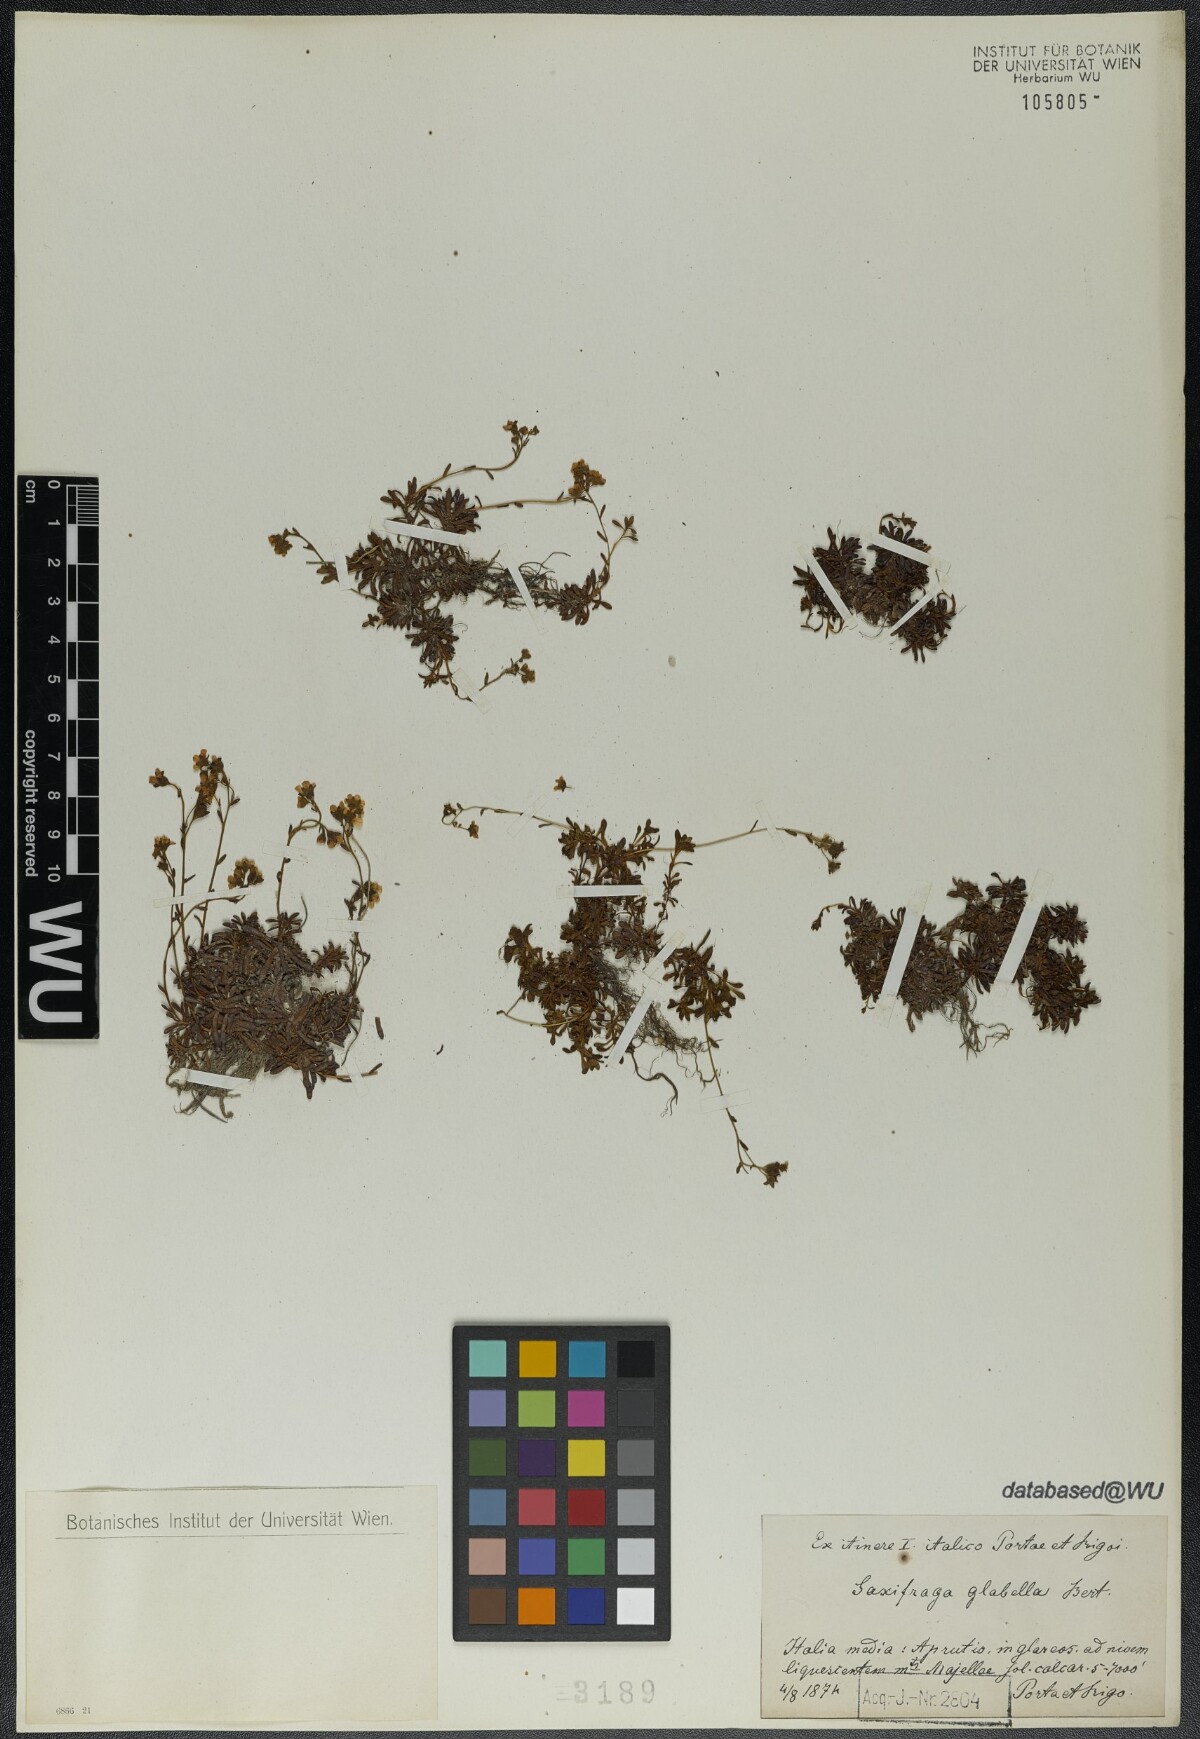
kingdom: Plantae
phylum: Tracheophyta
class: Magnoliopsida
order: Saxifragales
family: Saxifragaceae
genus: Saxifraga
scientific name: Saxifraga glabella
